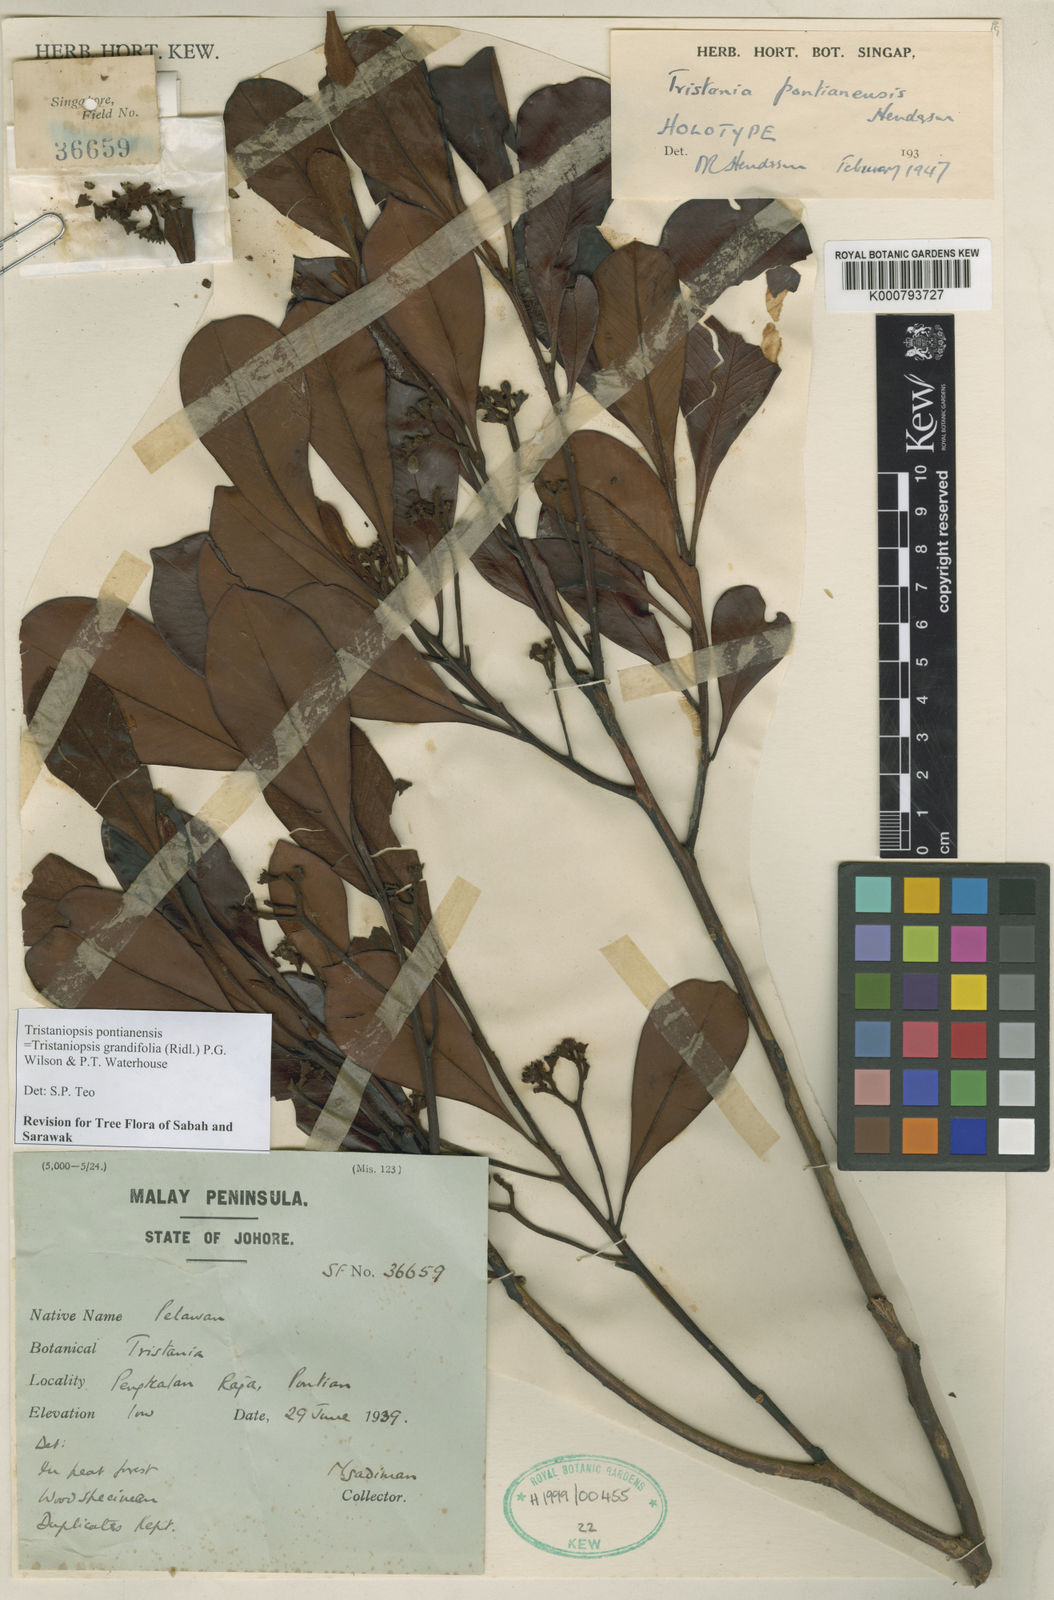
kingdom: Plantae
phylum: Tracheophyta
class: Magnoliopsida
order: Myrtales
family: Myrtaceae
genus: Tristaniopsis
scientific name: Tristaniopsis pontianensis
